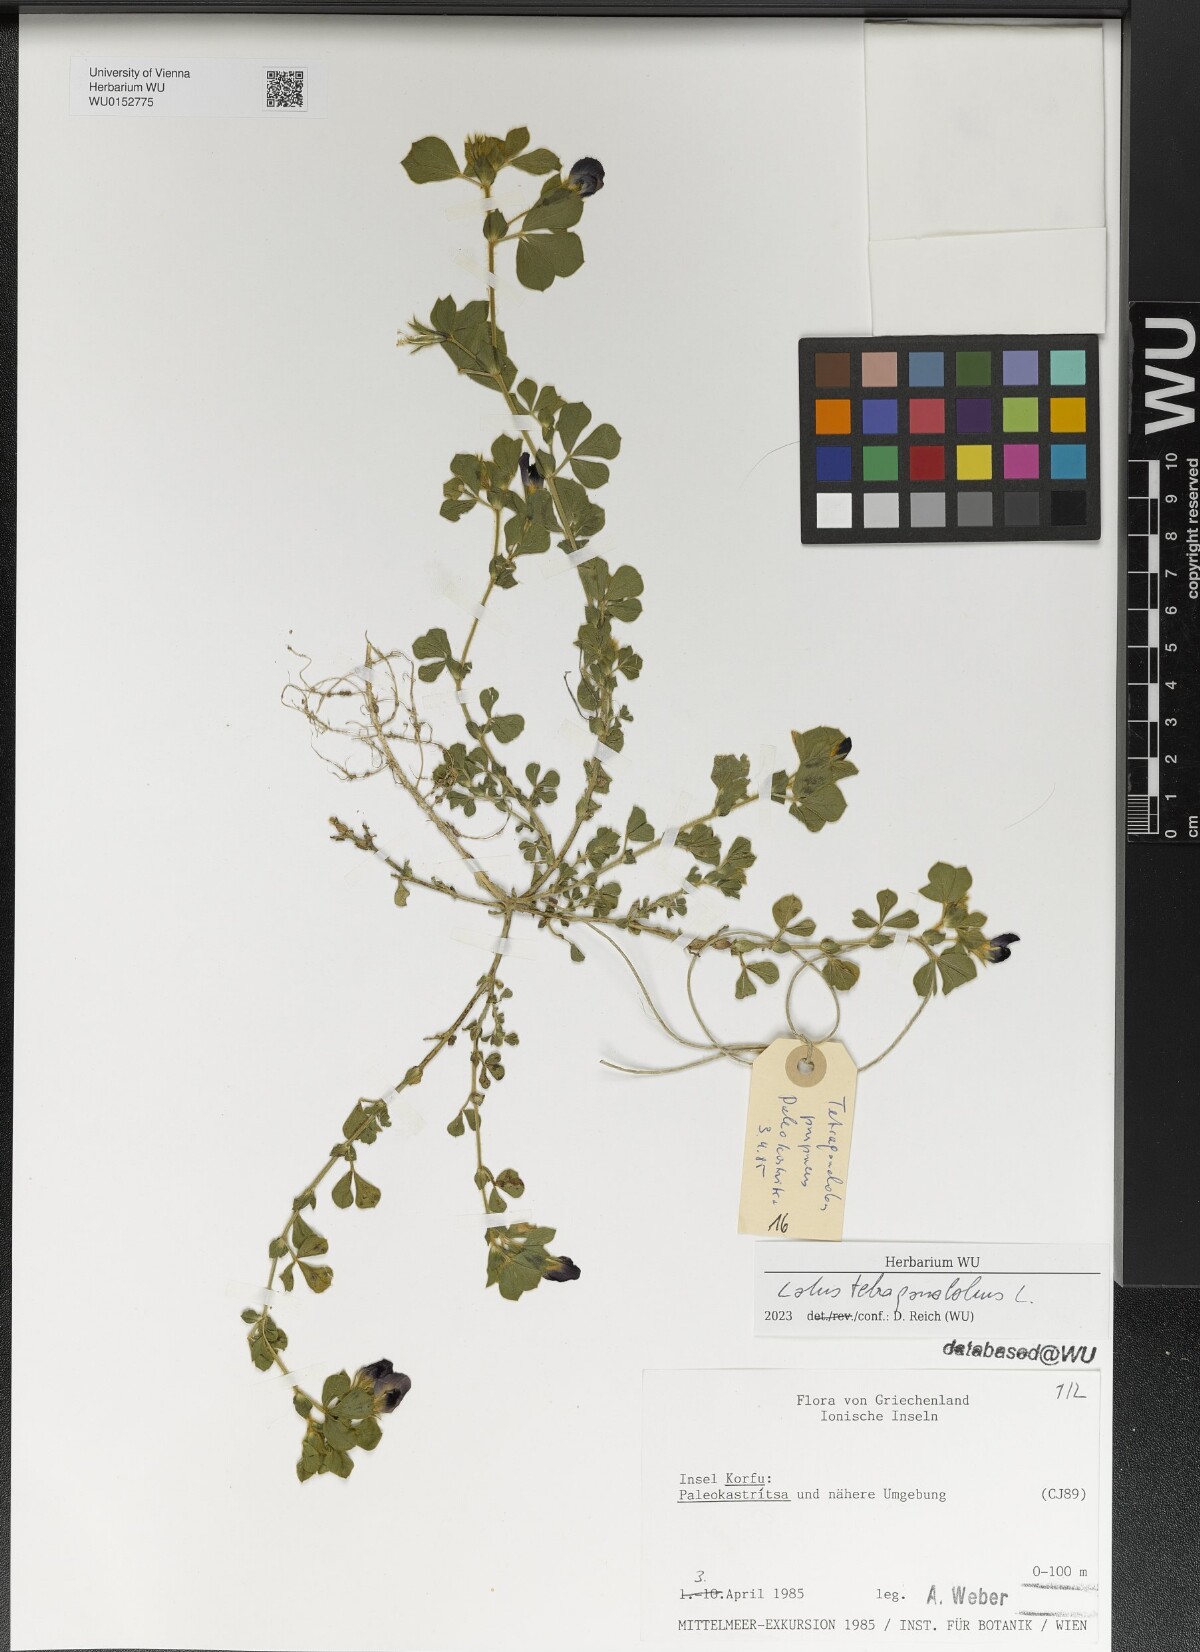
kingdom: Plantae
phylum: Tracheophyta
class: Magnoliopsida
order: Fabales
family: Fabaceae
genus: Lotus
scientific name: Lotus tetragonolobus
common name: Asparagus-pea
